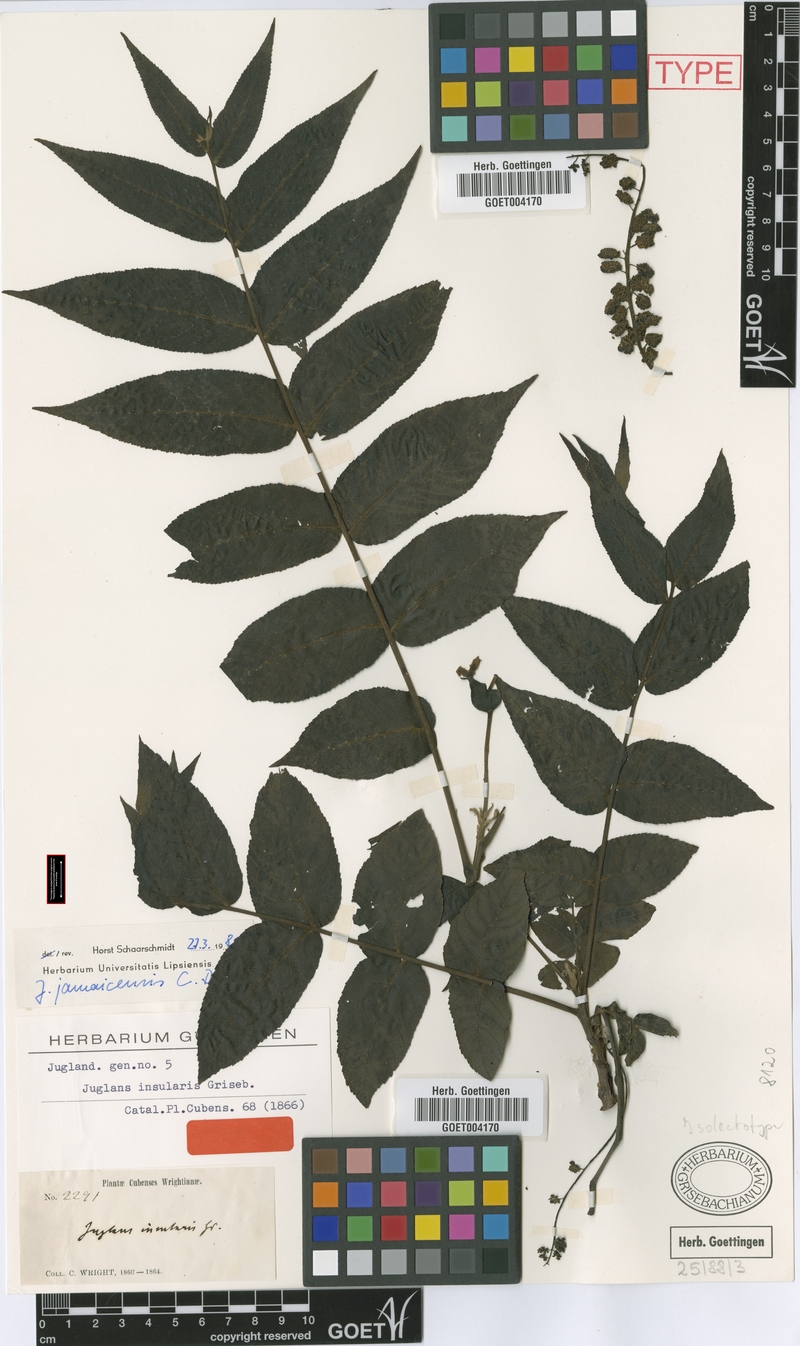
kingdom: Plantae
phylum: Tracheophyta
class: Magnoliopsida
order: Fagales
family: Juglandaceae
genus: Juglans
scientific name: Juglans jamaicensis
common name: West indian walnut
